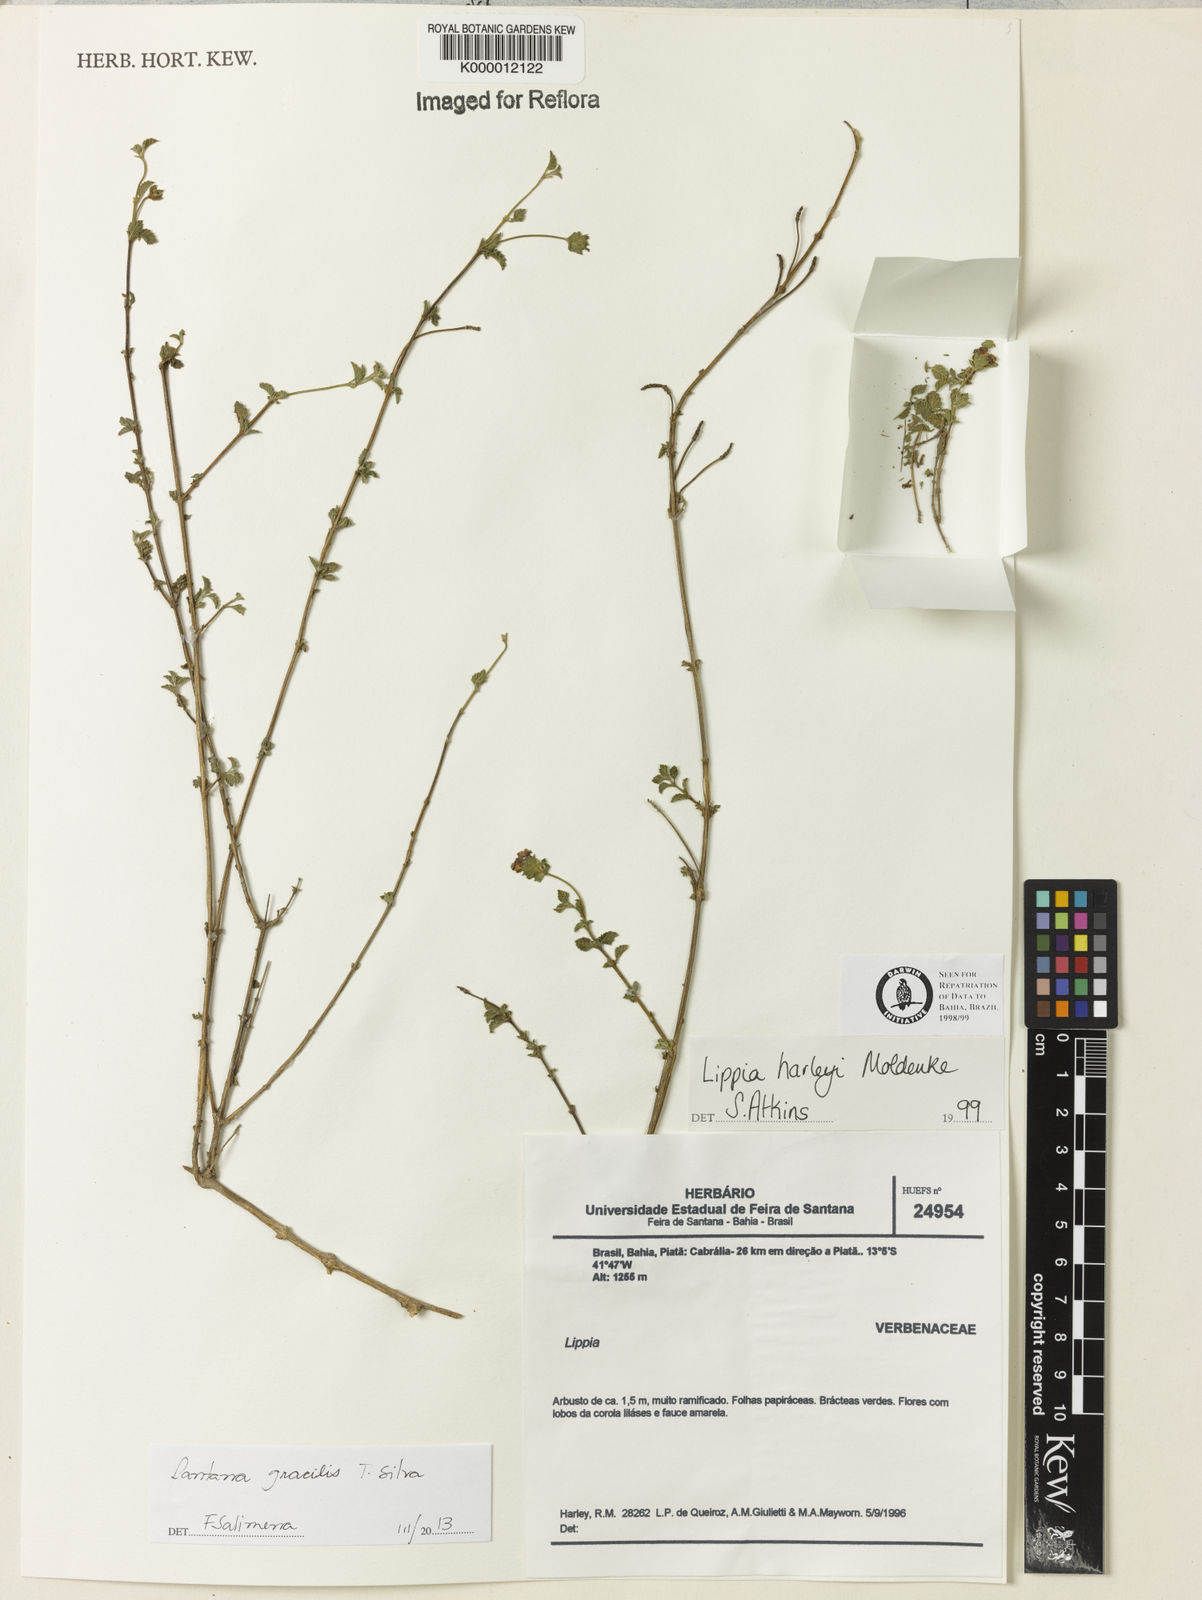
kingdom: Plantae
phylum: Tracheophyta
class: Magnoliopsida
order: Lamiales
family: Verbenaceae
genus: Lippia
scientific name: Lippia harleyi
